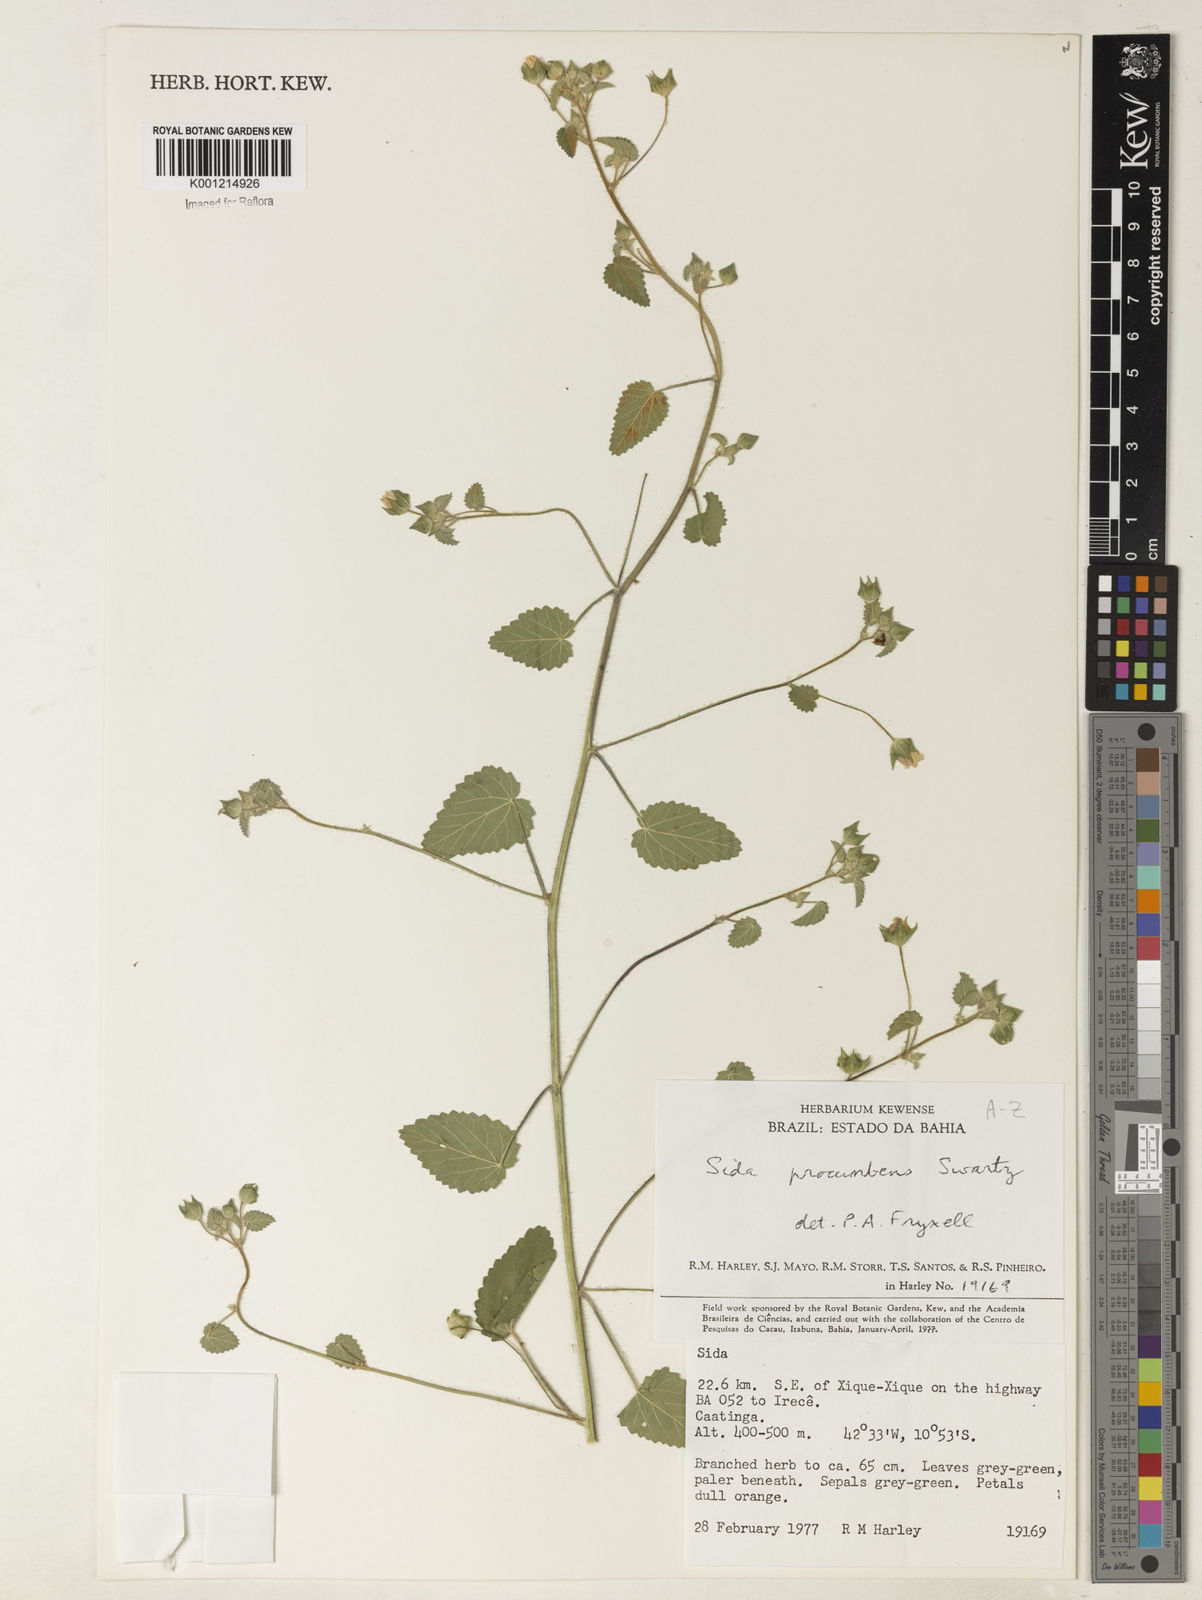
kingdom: Plantae
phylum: Tracheophyta
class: Magnoliopsida
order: Malvales
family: Malvaceae
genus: Sida
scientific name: Sida abutilifolia
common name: Spreading fanpetals
